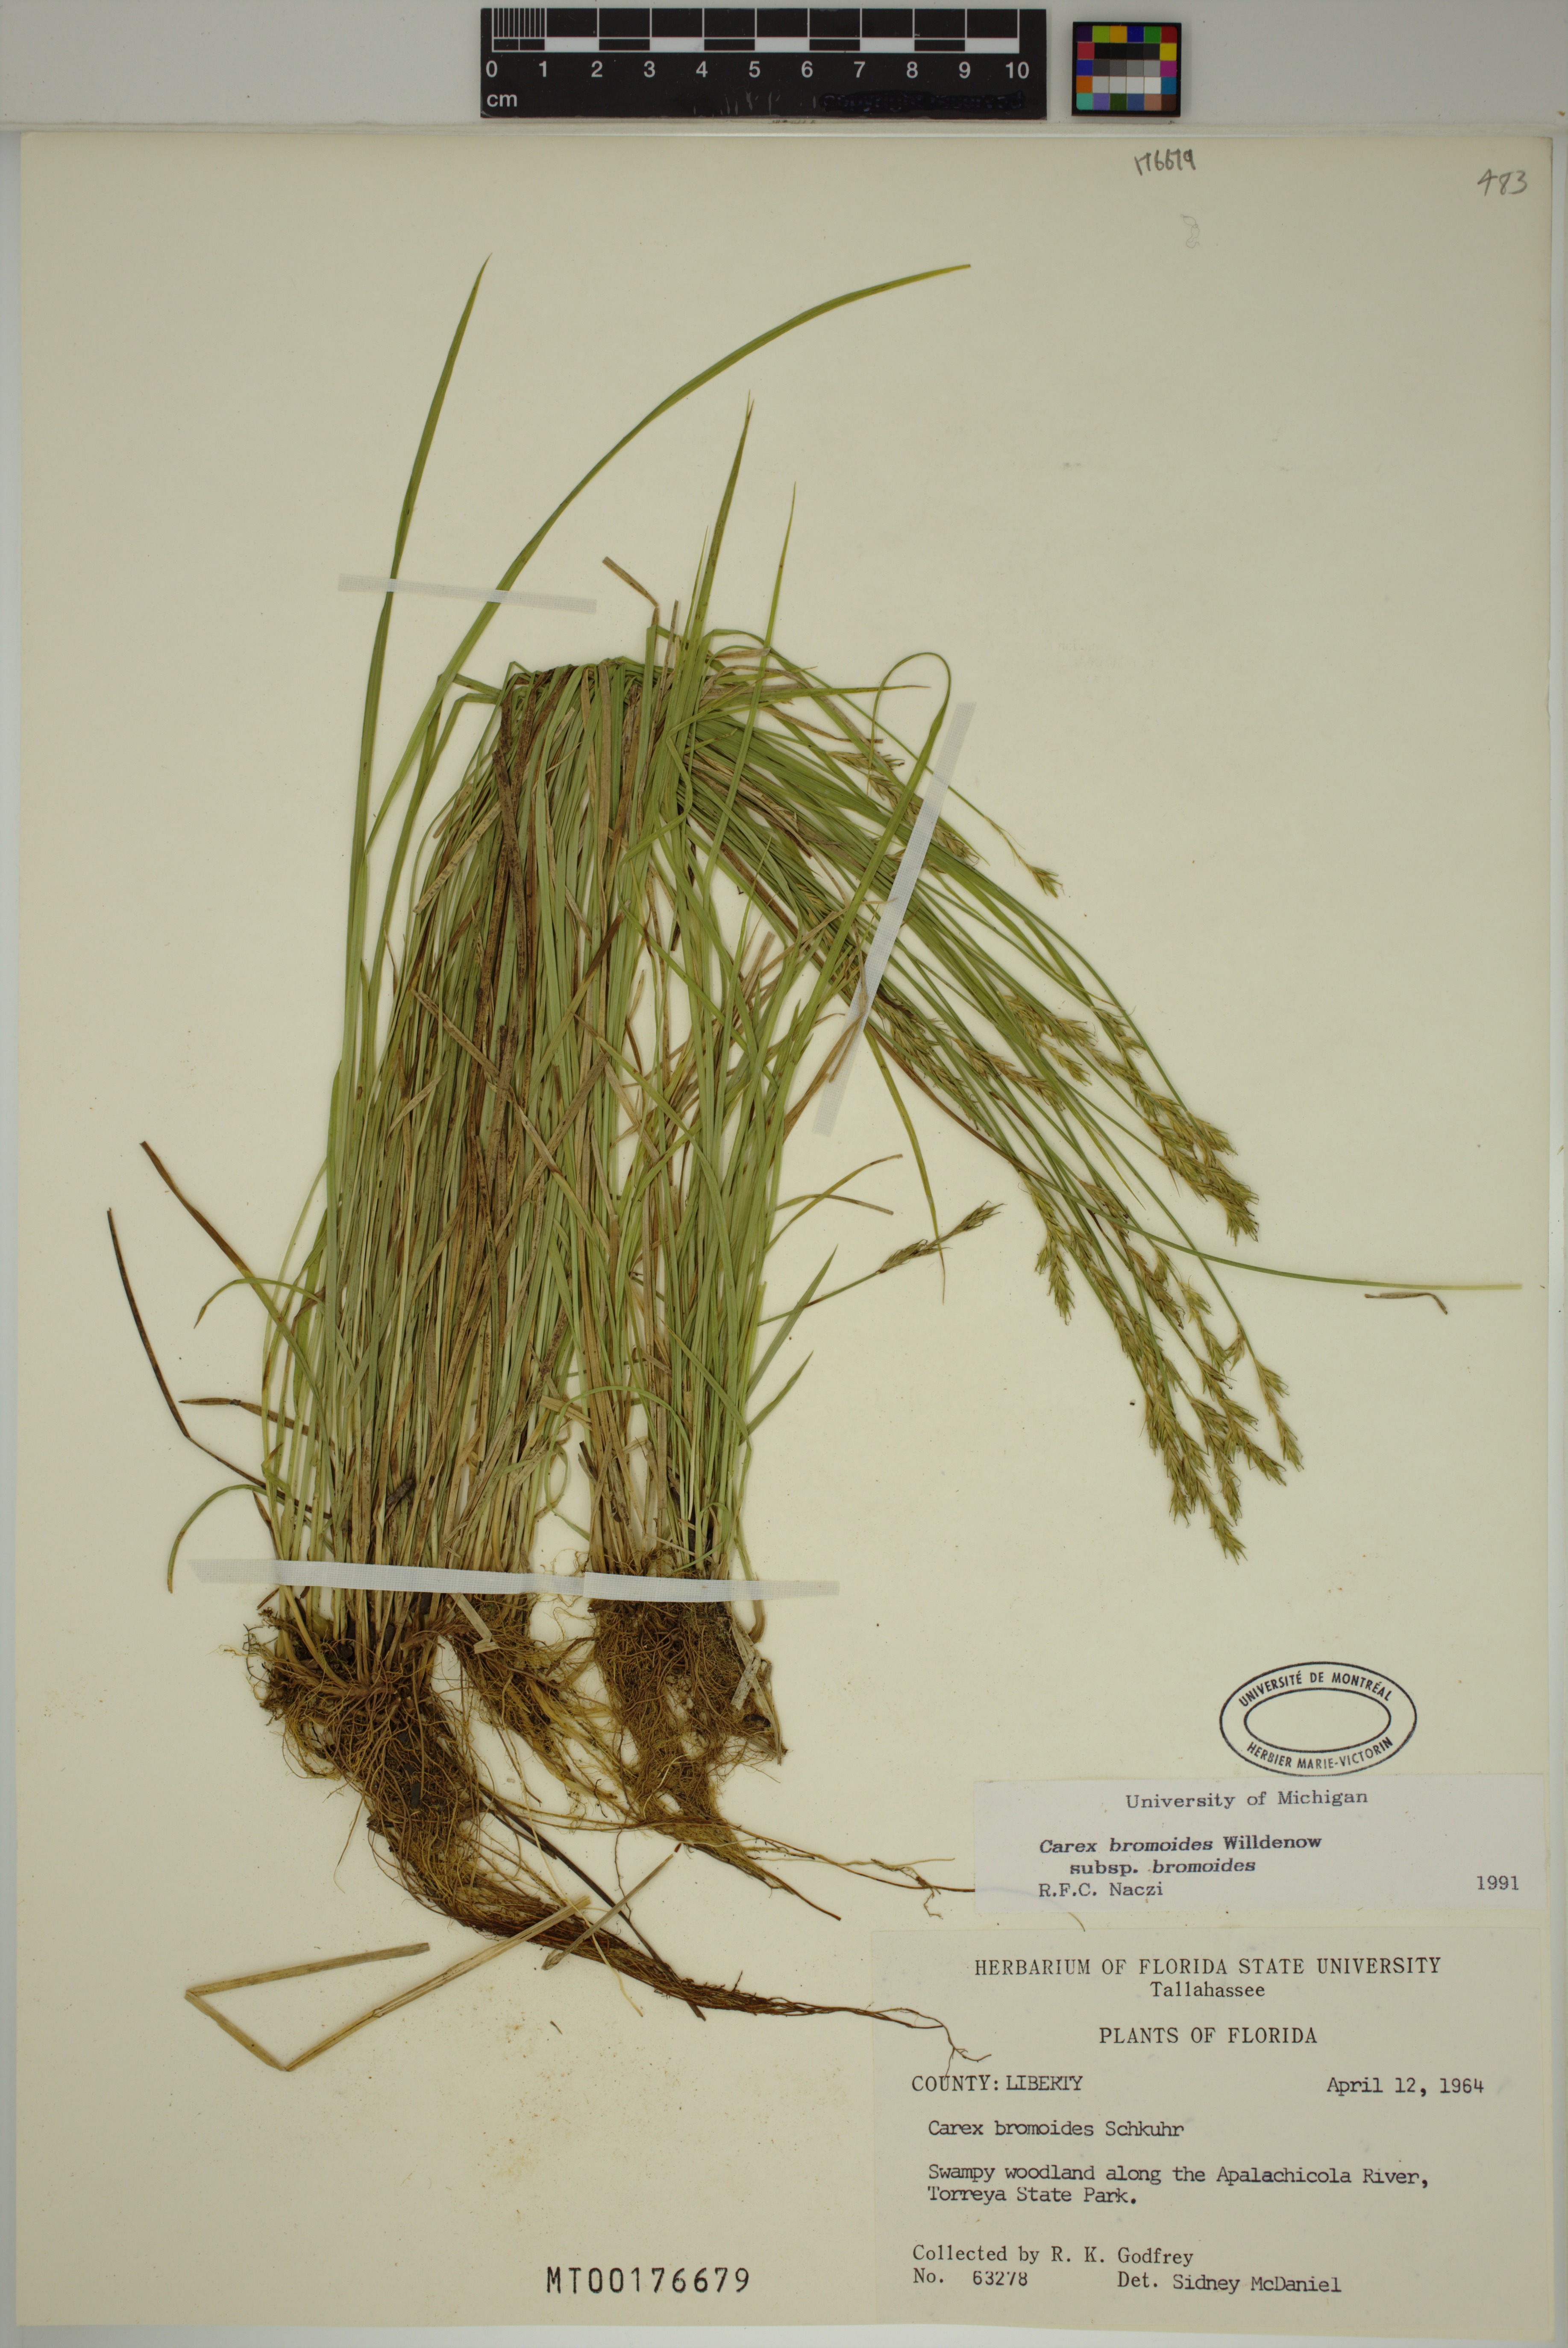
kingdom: Plantae
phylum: Tracheophyta
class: Liliopsida
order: Poales
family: Cyperaceae
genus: Carex
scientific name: Carex bromoides
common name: Brome hummock sedge
